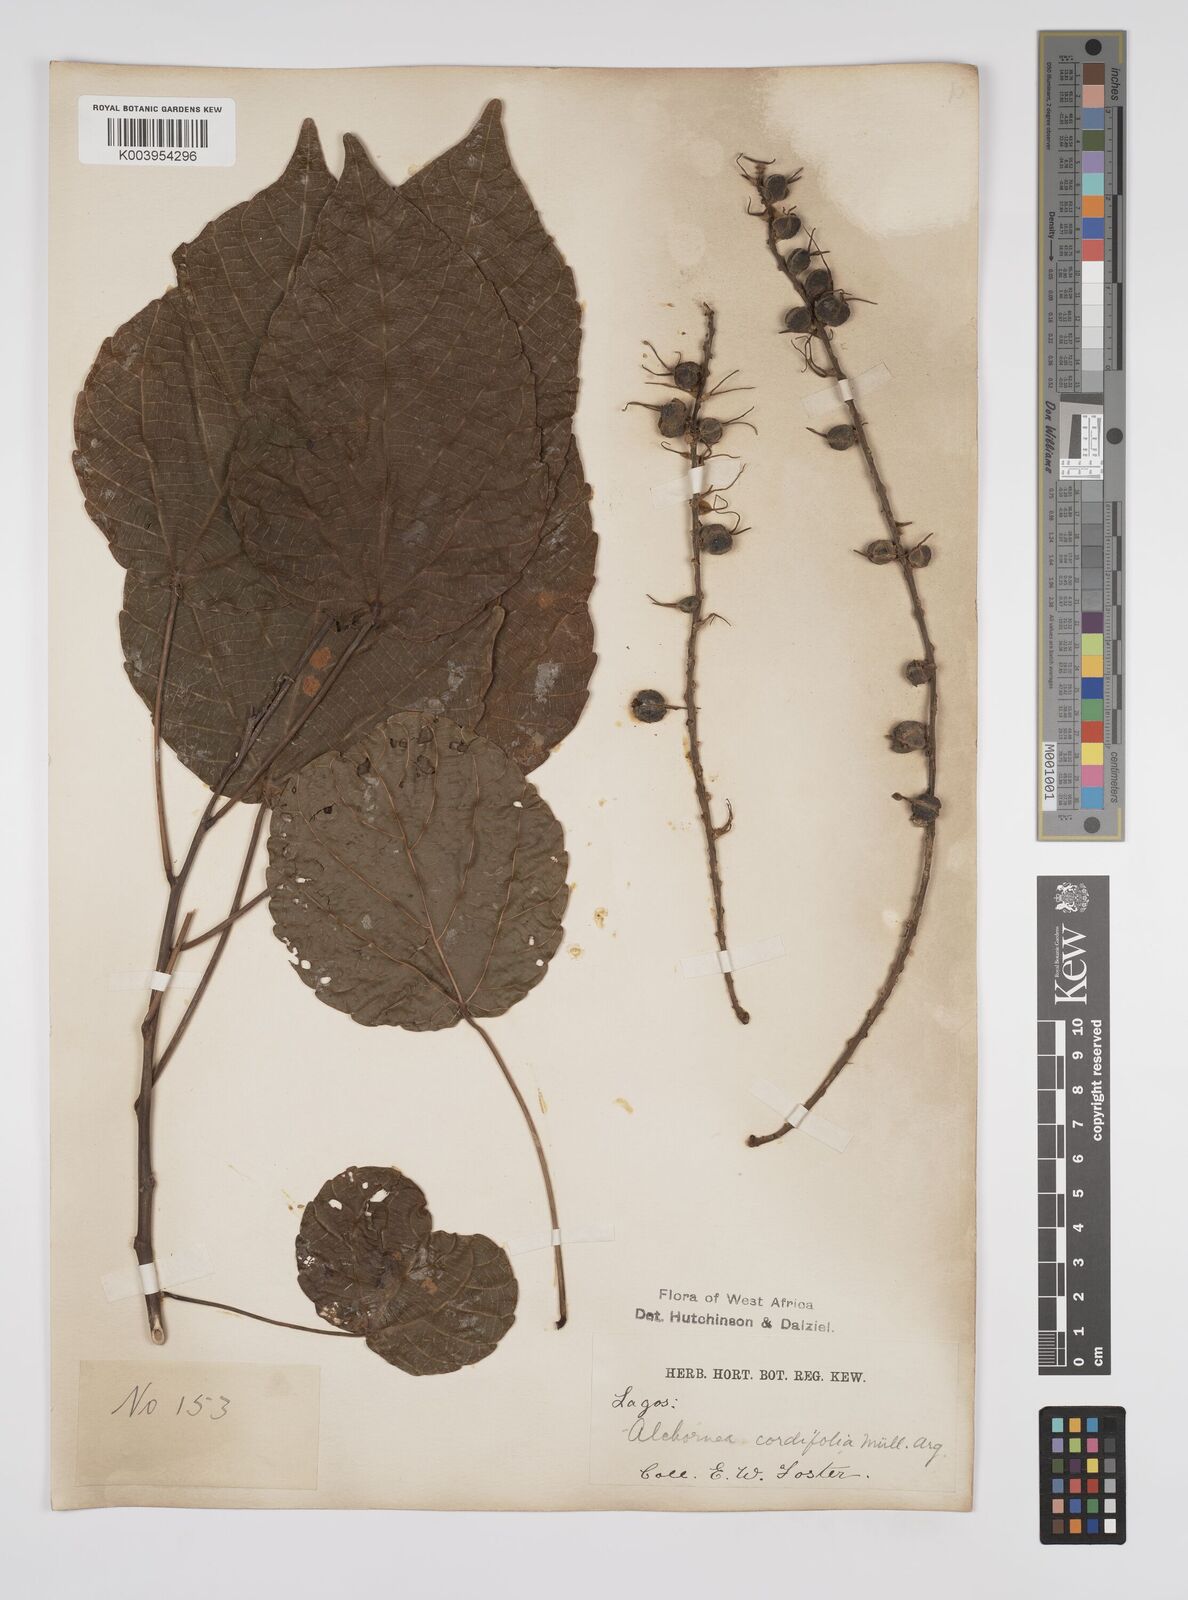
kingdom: Plantae
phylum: Tracheophyta
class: Magnoliopsida
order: Malpighiales
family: Euphorbiaceae
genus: Alchornea
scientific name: Alchornea cordifolia
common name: Christmasbush
